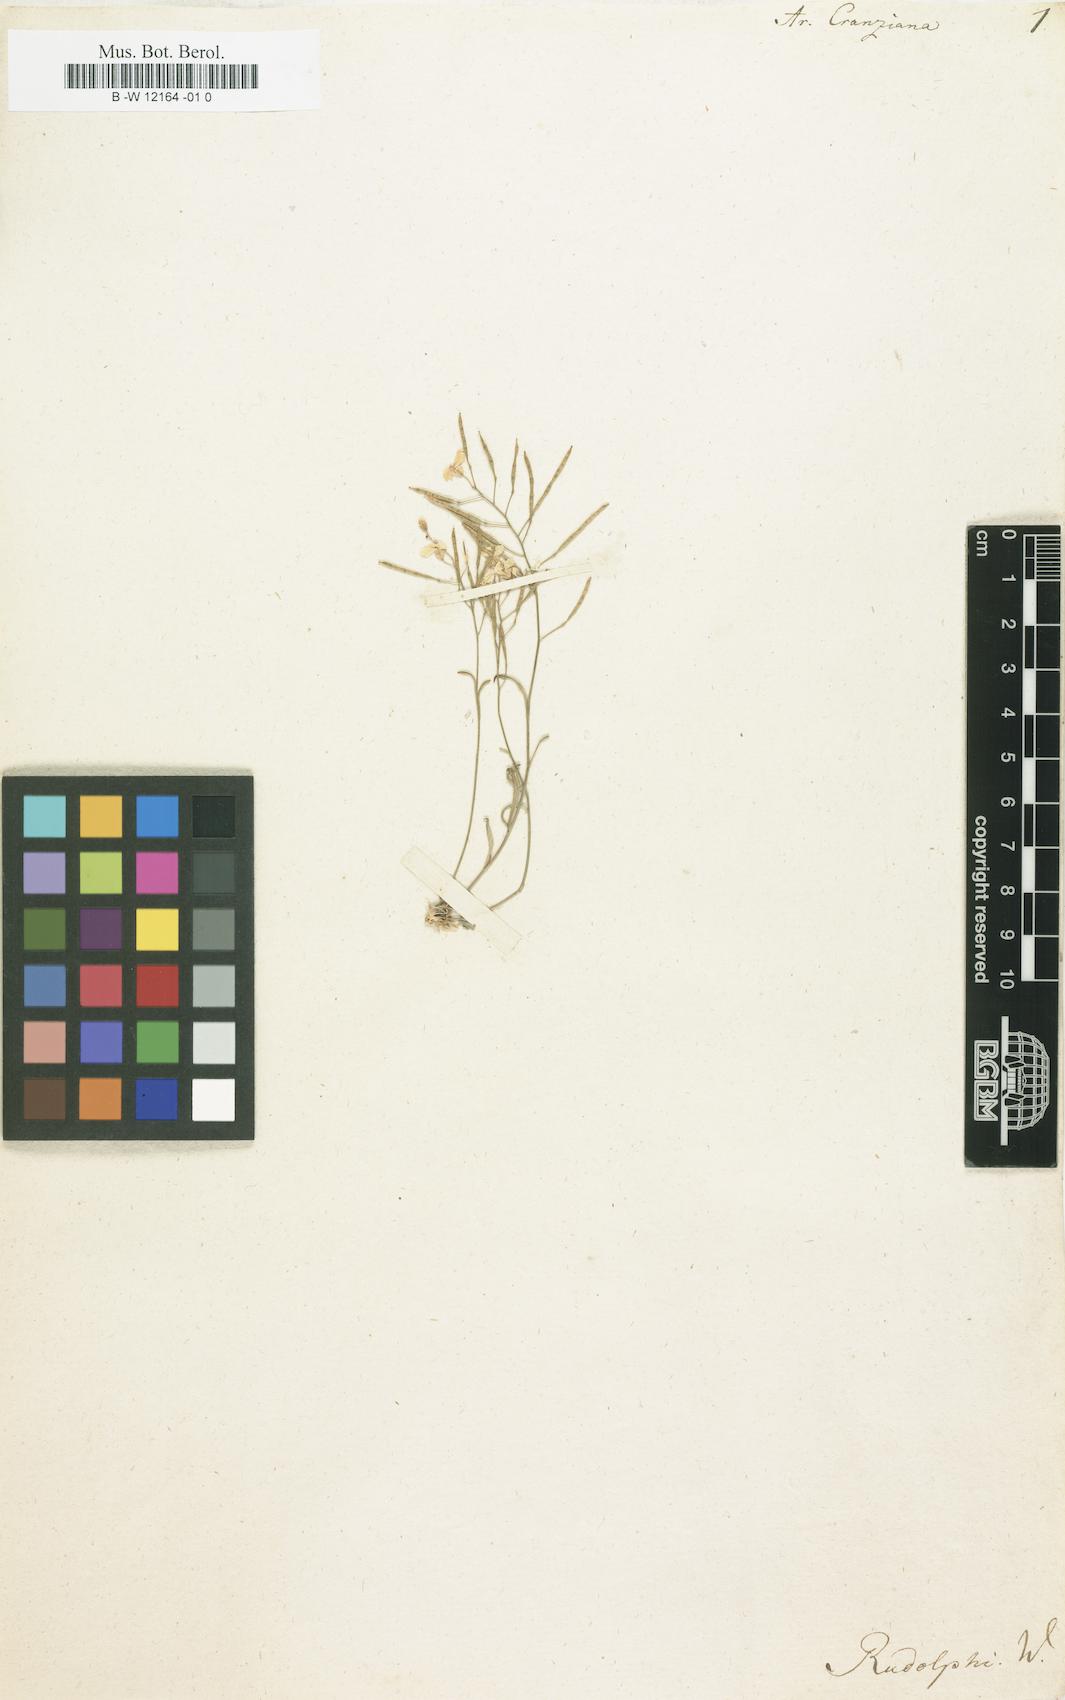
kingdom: Plantae
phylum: Tracheophyta
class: Magnoliopsida
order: Brassicales
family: Brassicaceae
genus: Arabidopsis
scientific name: Arabidopsis
